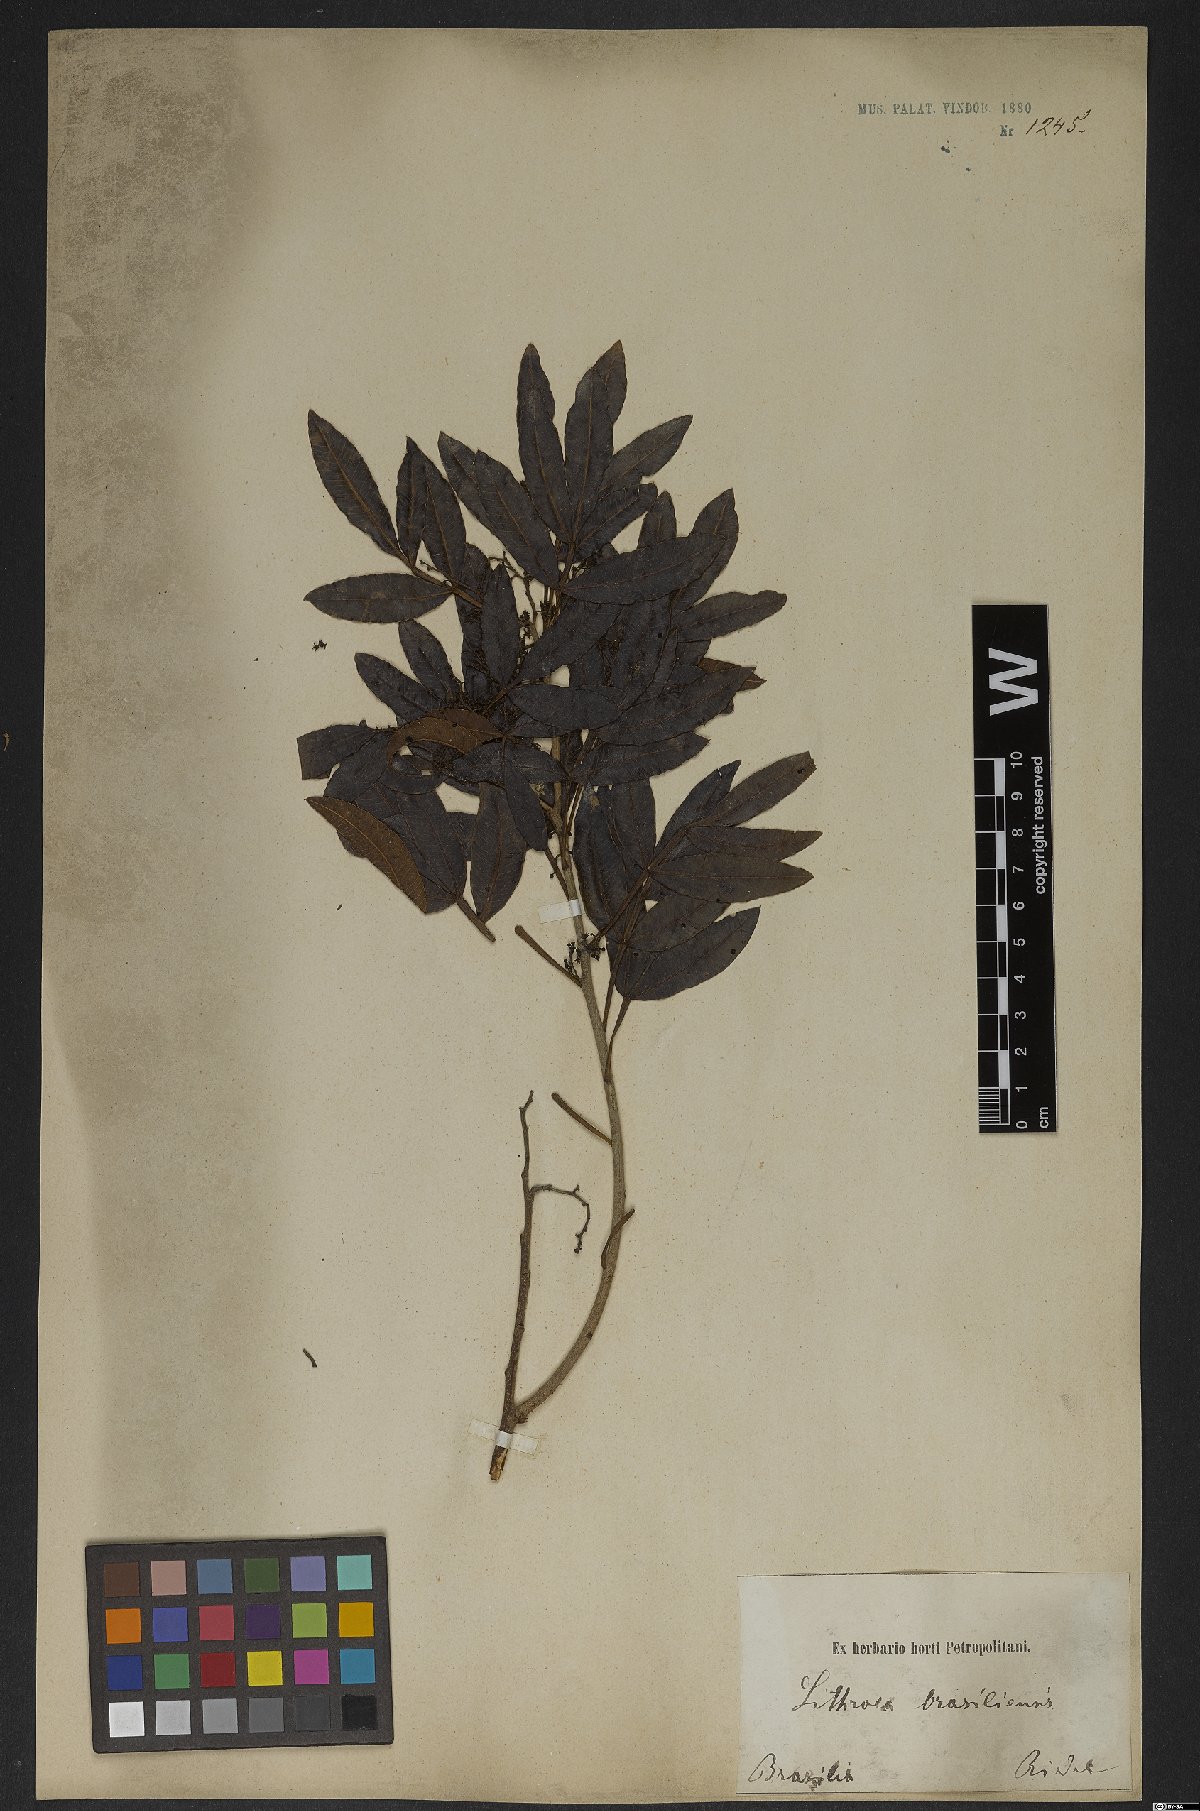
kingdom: Plantae
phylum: Tracheophyta
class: Magnoliopsida
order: Sapindales
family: Anacardiaceae
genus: Lithraea
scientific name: Lithraea brasiliensis
